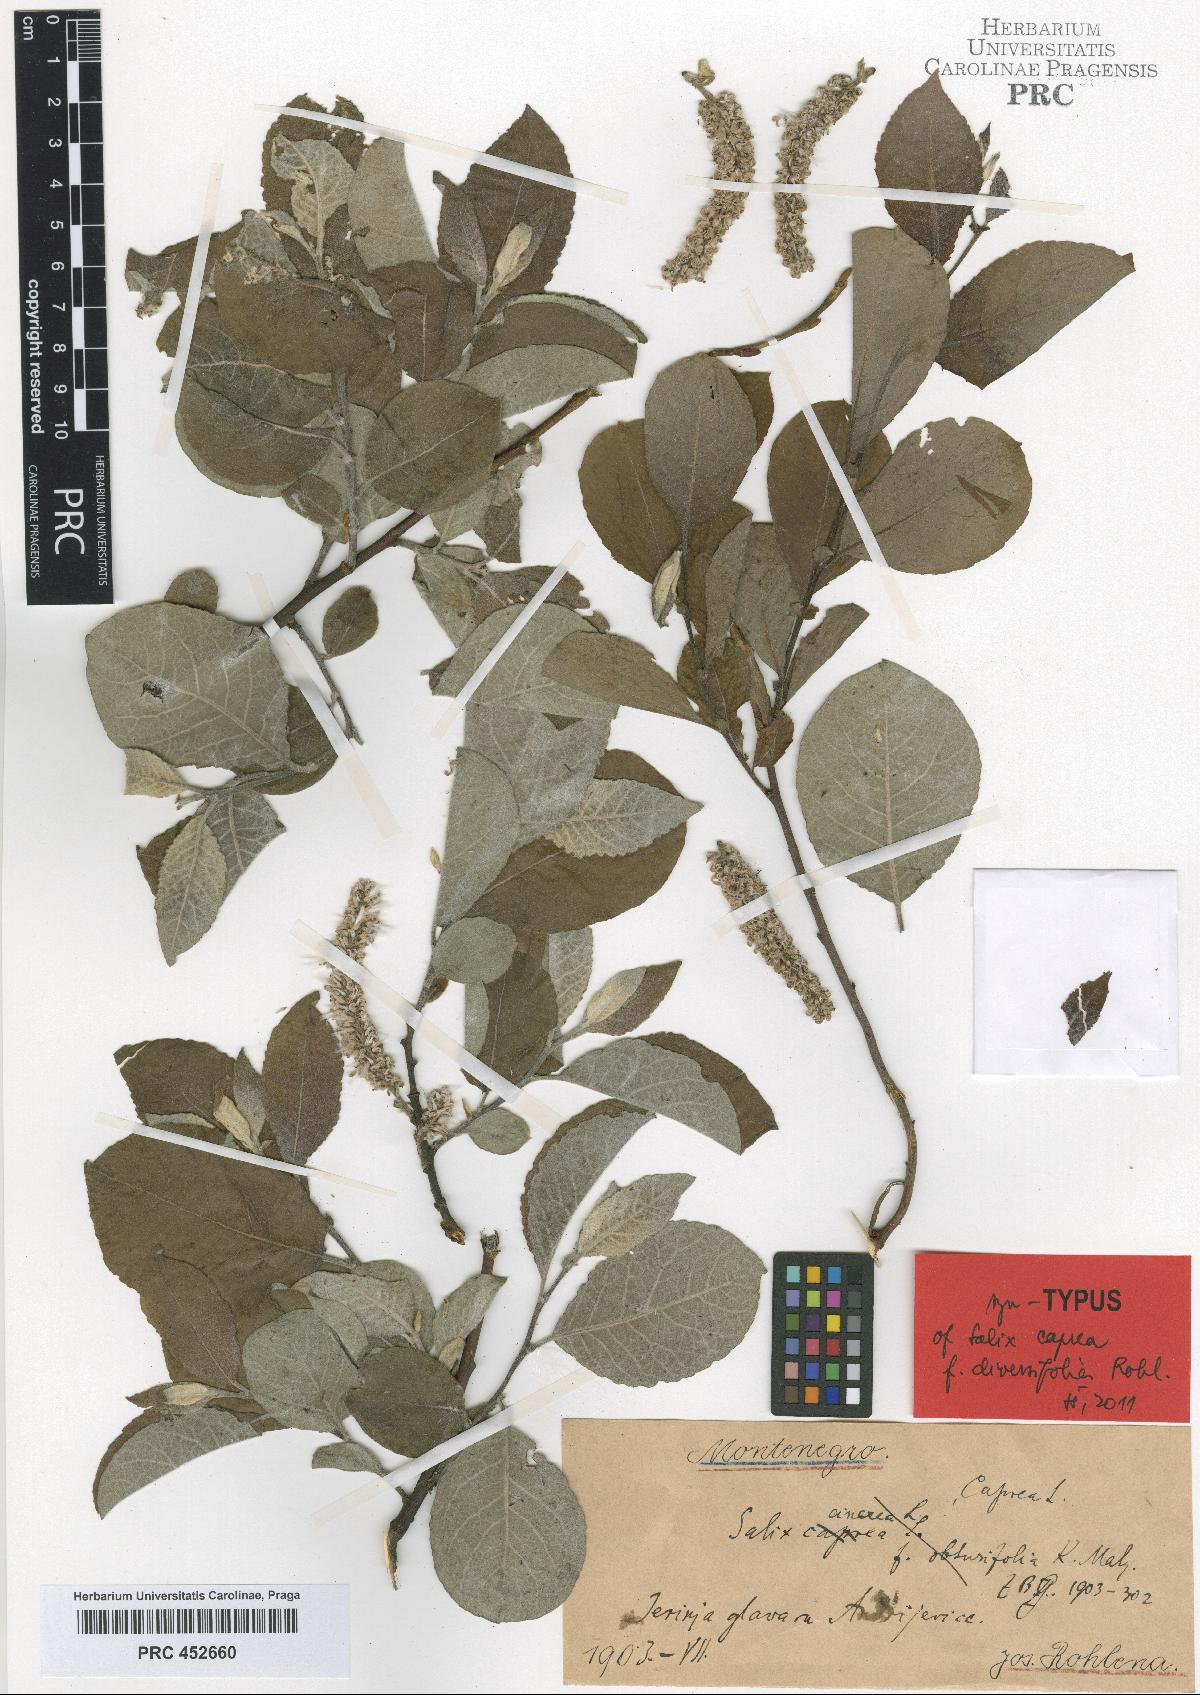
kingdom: Plantae
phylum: Tracheophyta
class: Magnoliopsida
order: Malpighiales
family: Salicaceae
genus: Salix
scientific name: Salix caprea
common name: Goat willow
